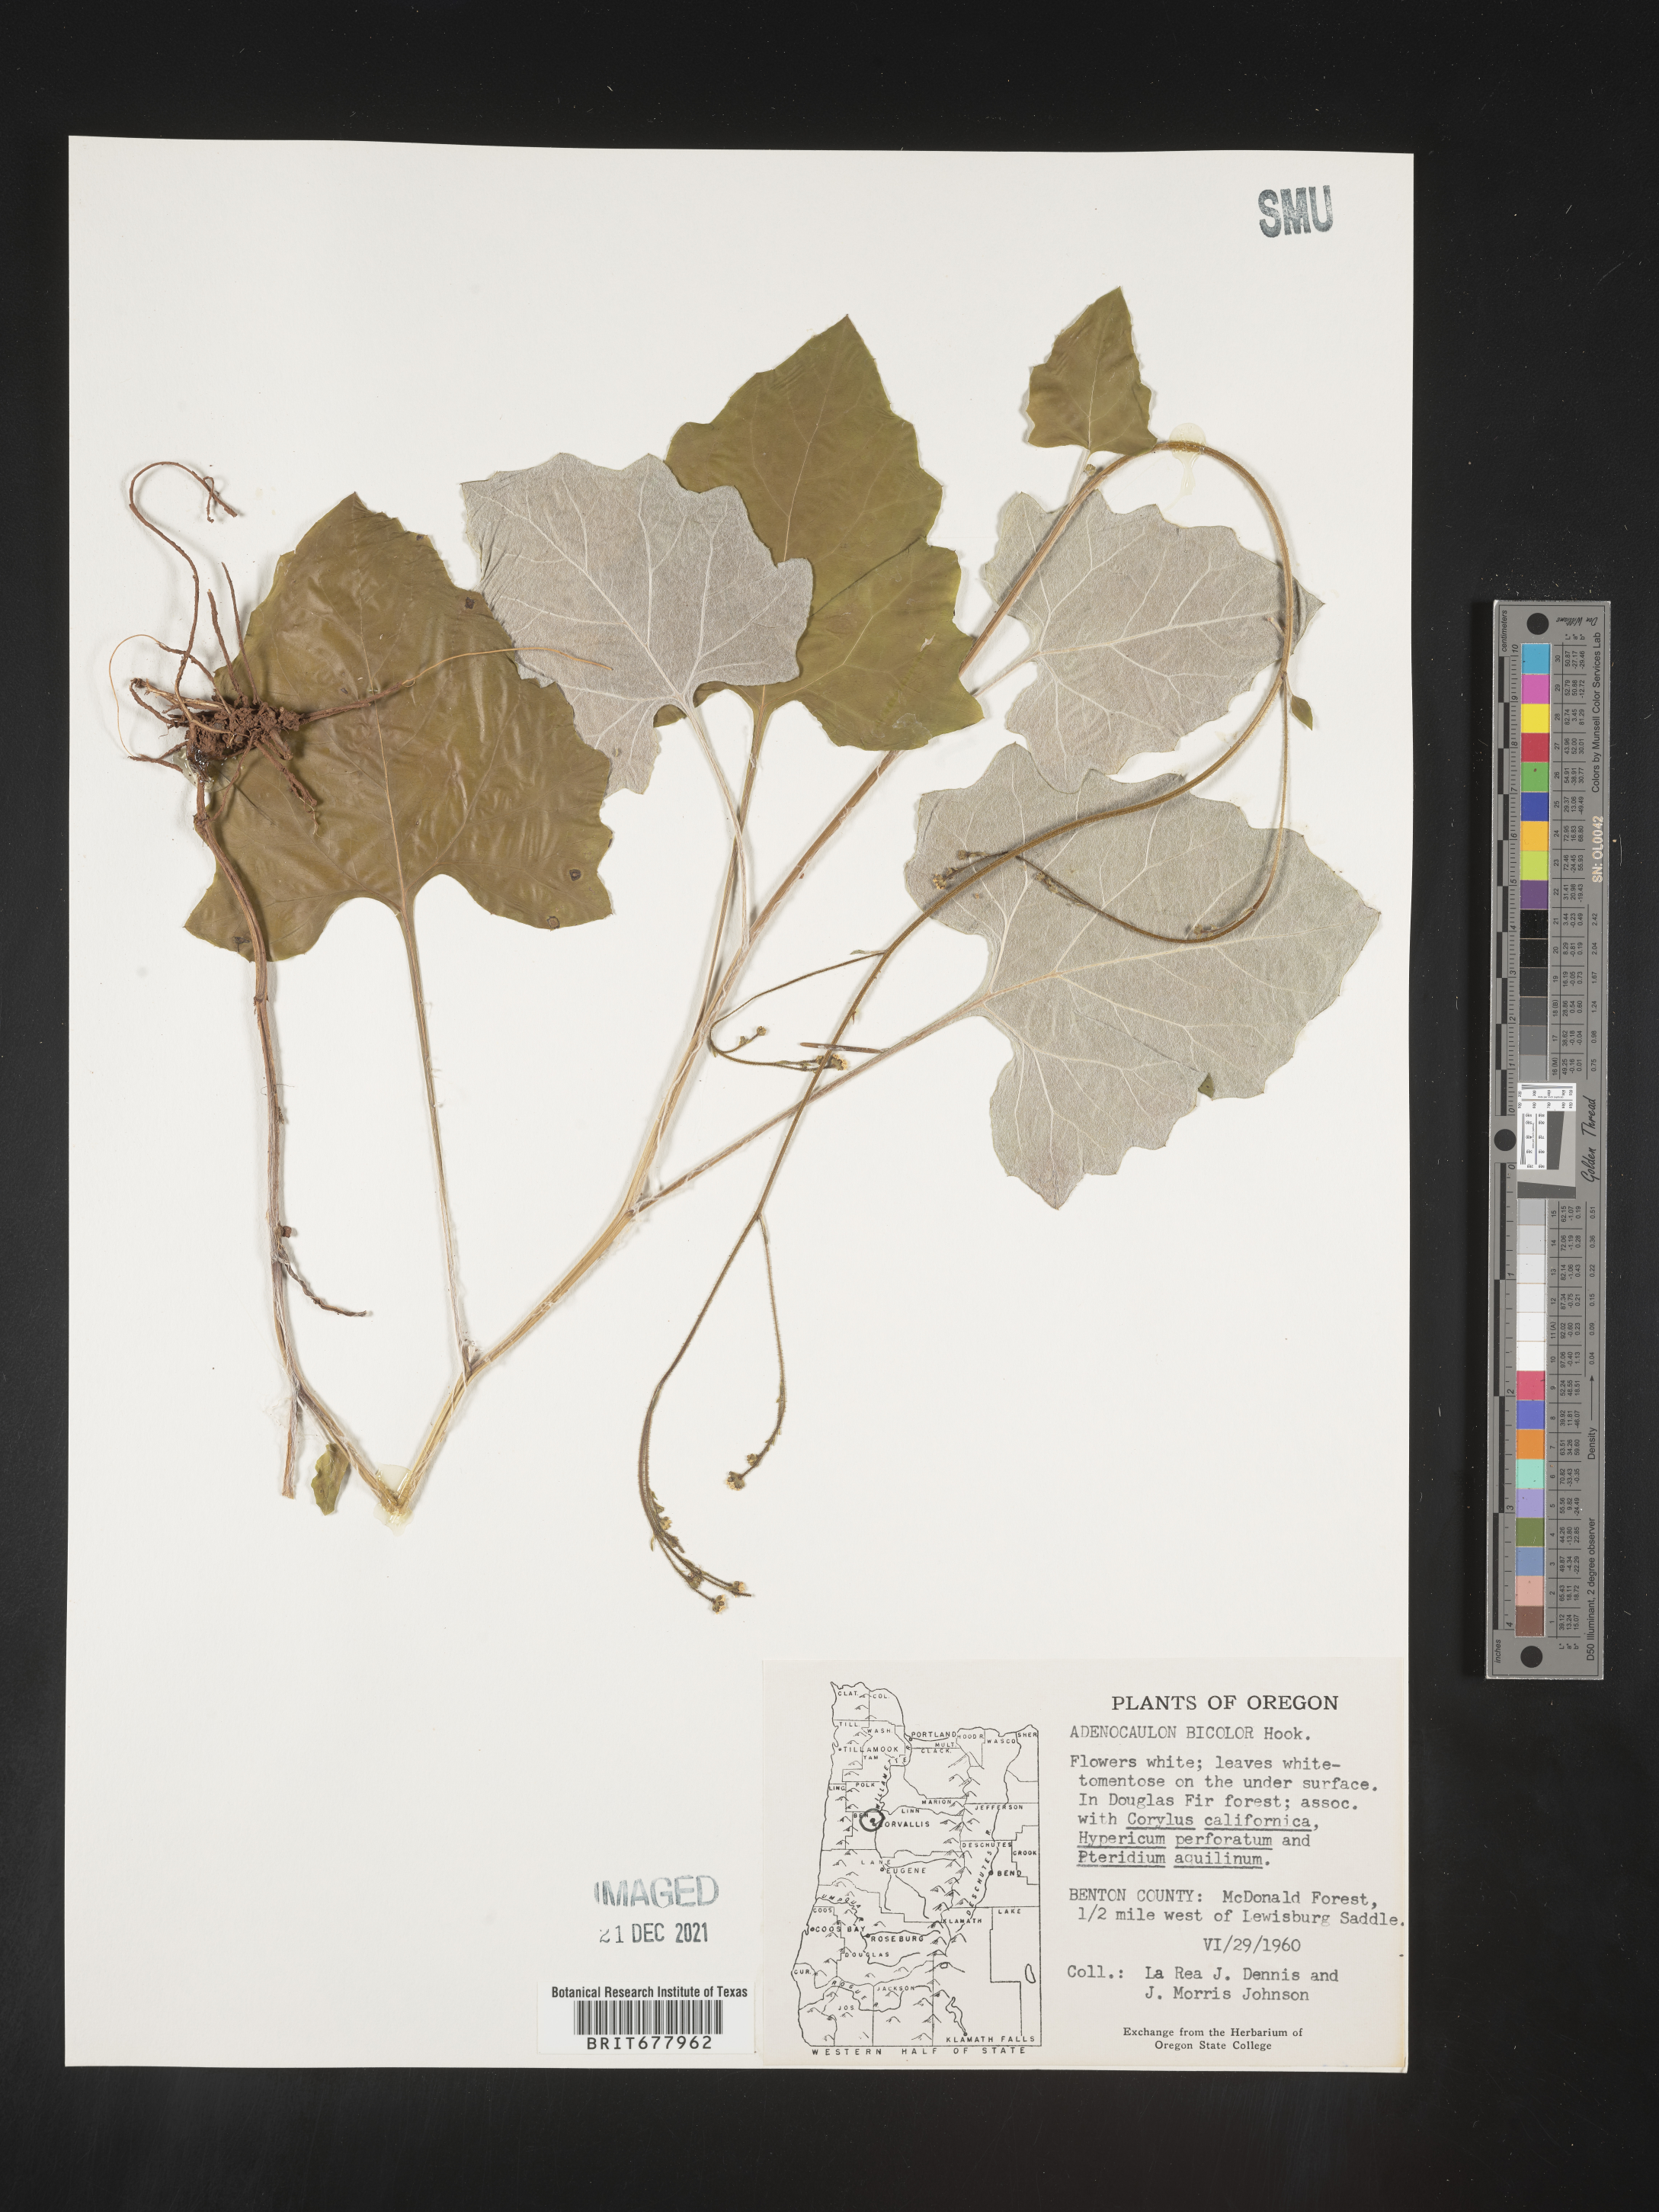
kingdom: Plantae
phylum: Tracheophyta
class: Magnoliopsida
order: Asterales
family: Asteraceae
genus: Adenocaulon
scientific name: Adenocaulon
